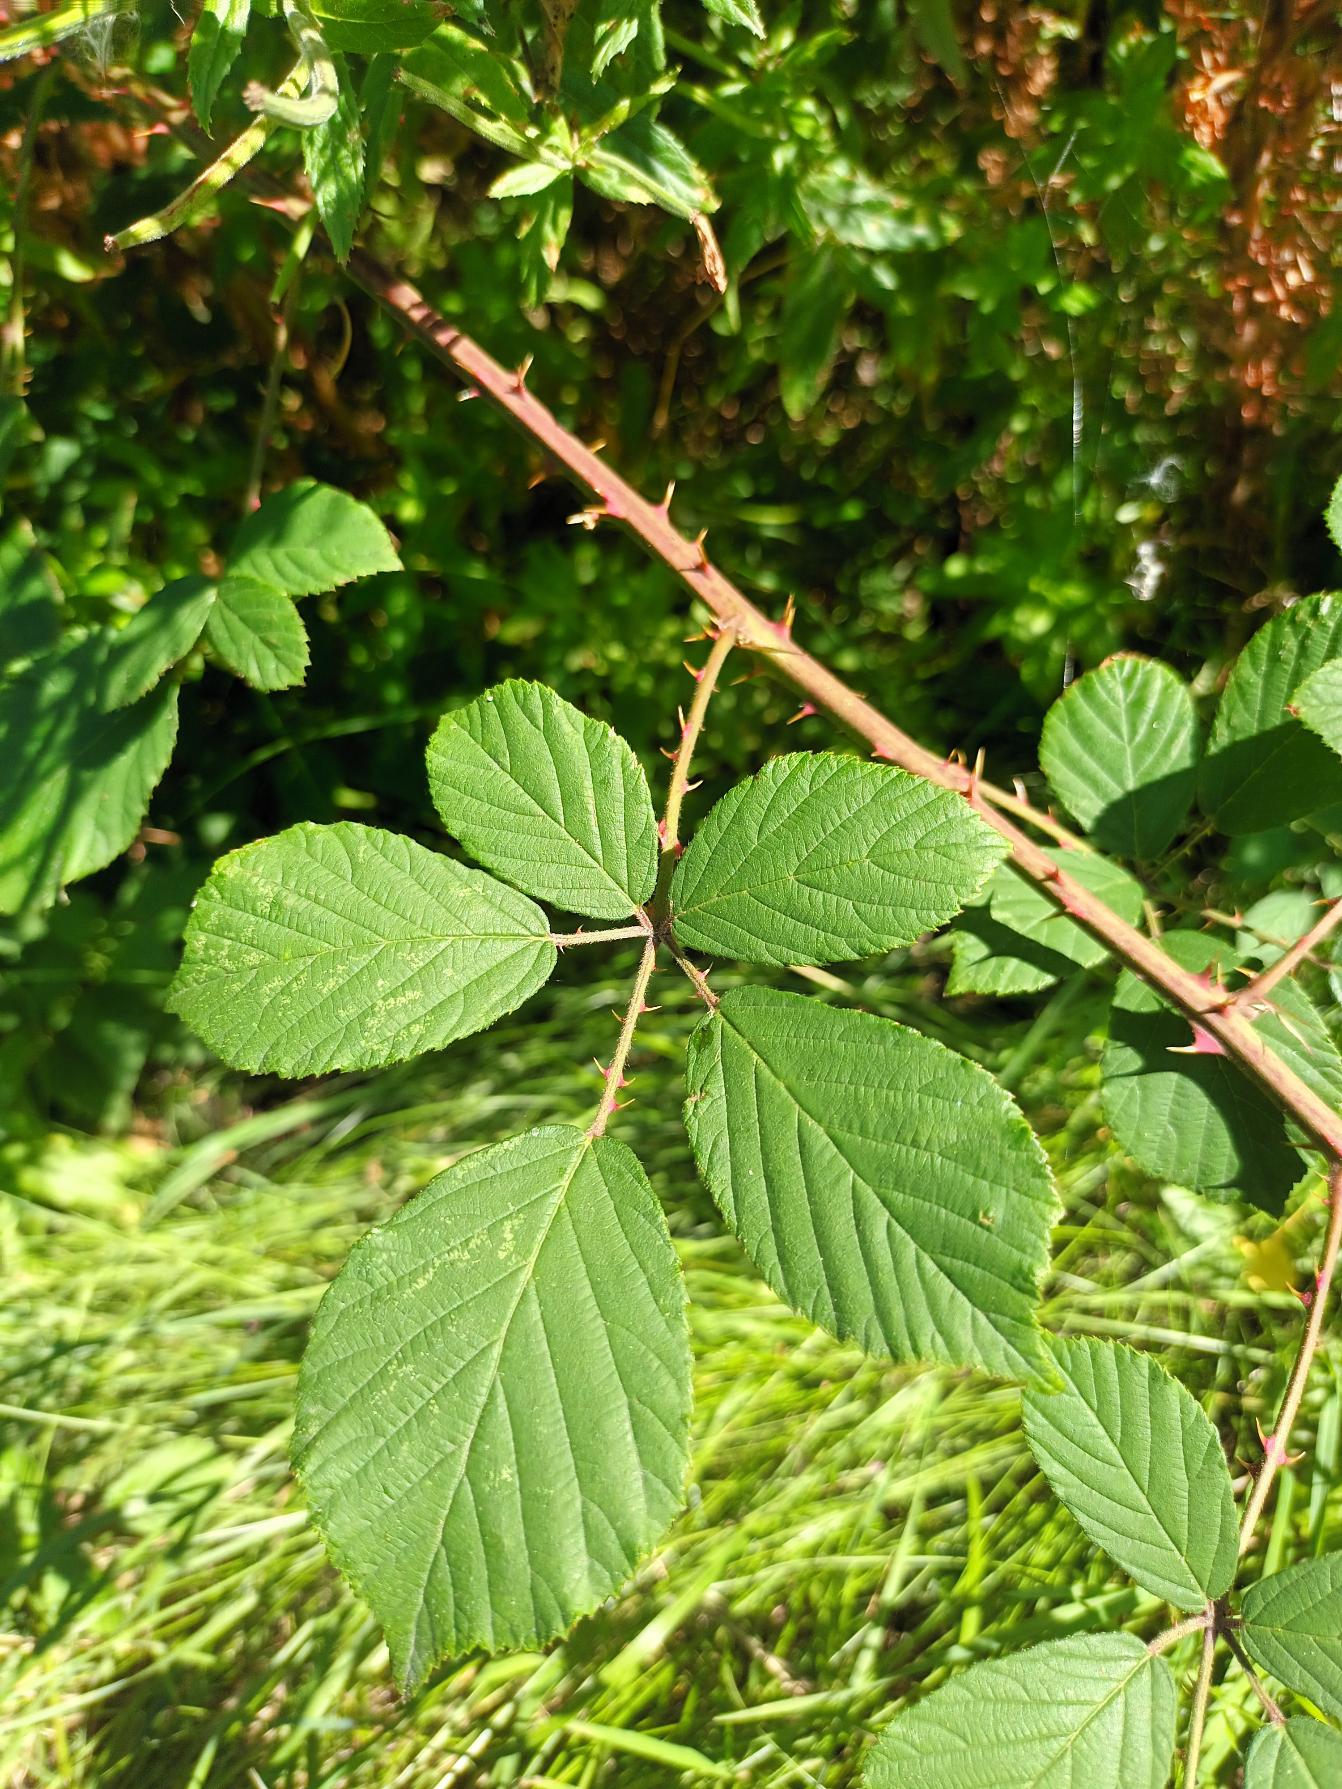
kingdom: Plantae
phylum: Tracheophyta
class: Magnoliopsida
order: Rosales
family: Rosaceae
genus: Rubus
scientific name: Rubus lindebergii
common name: Lindebergs brombær
